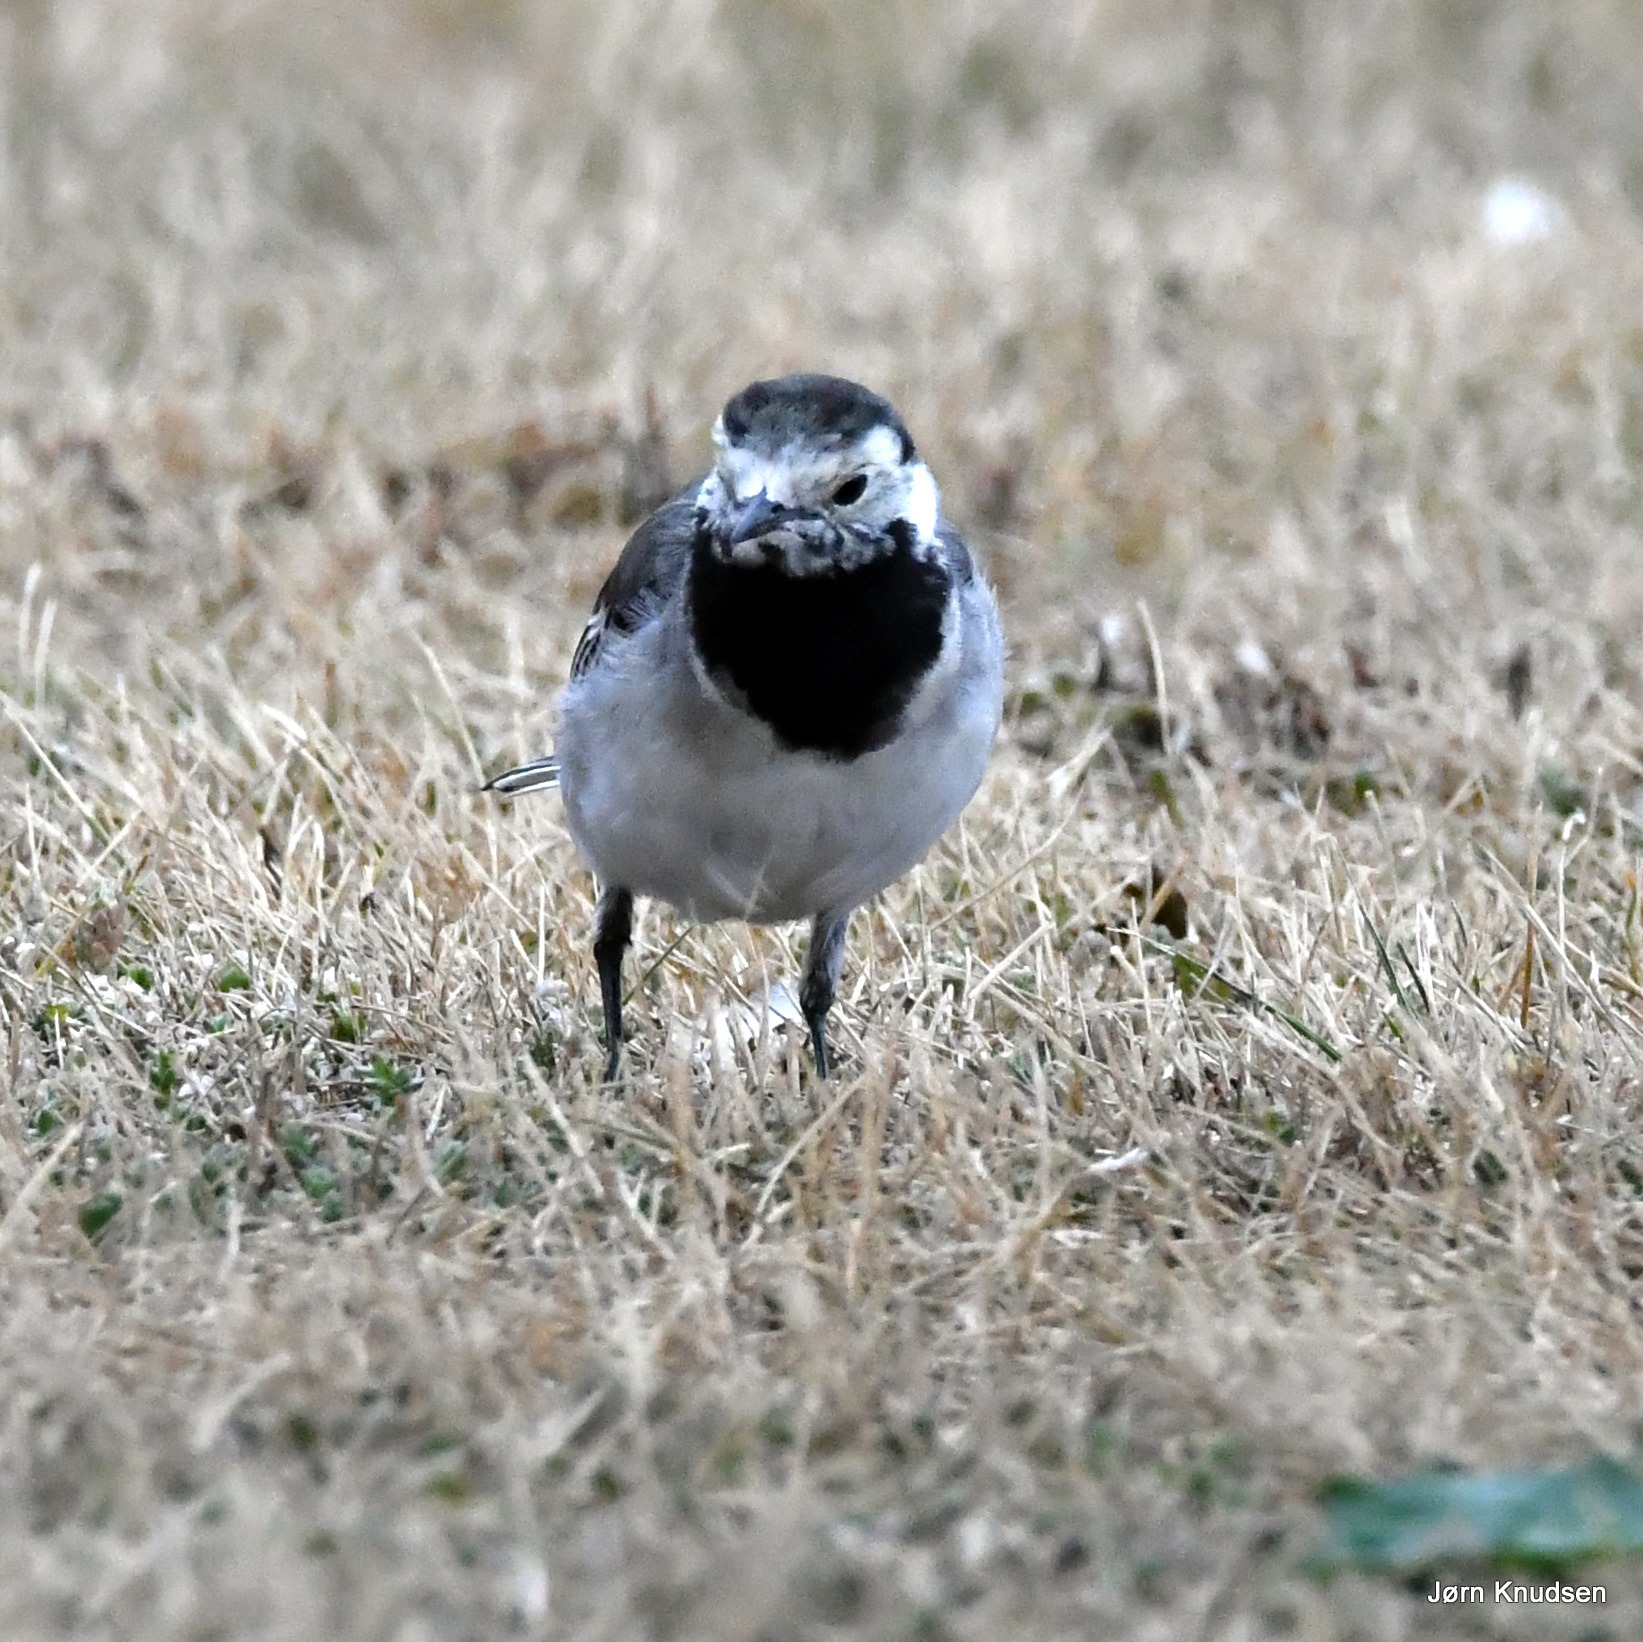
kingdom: Animalia
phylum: Chordata
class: Aves
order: Passeriformes
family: Motacillidae
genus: Motacilla
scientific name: Motacilla alba
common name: Hvid vipstjert
